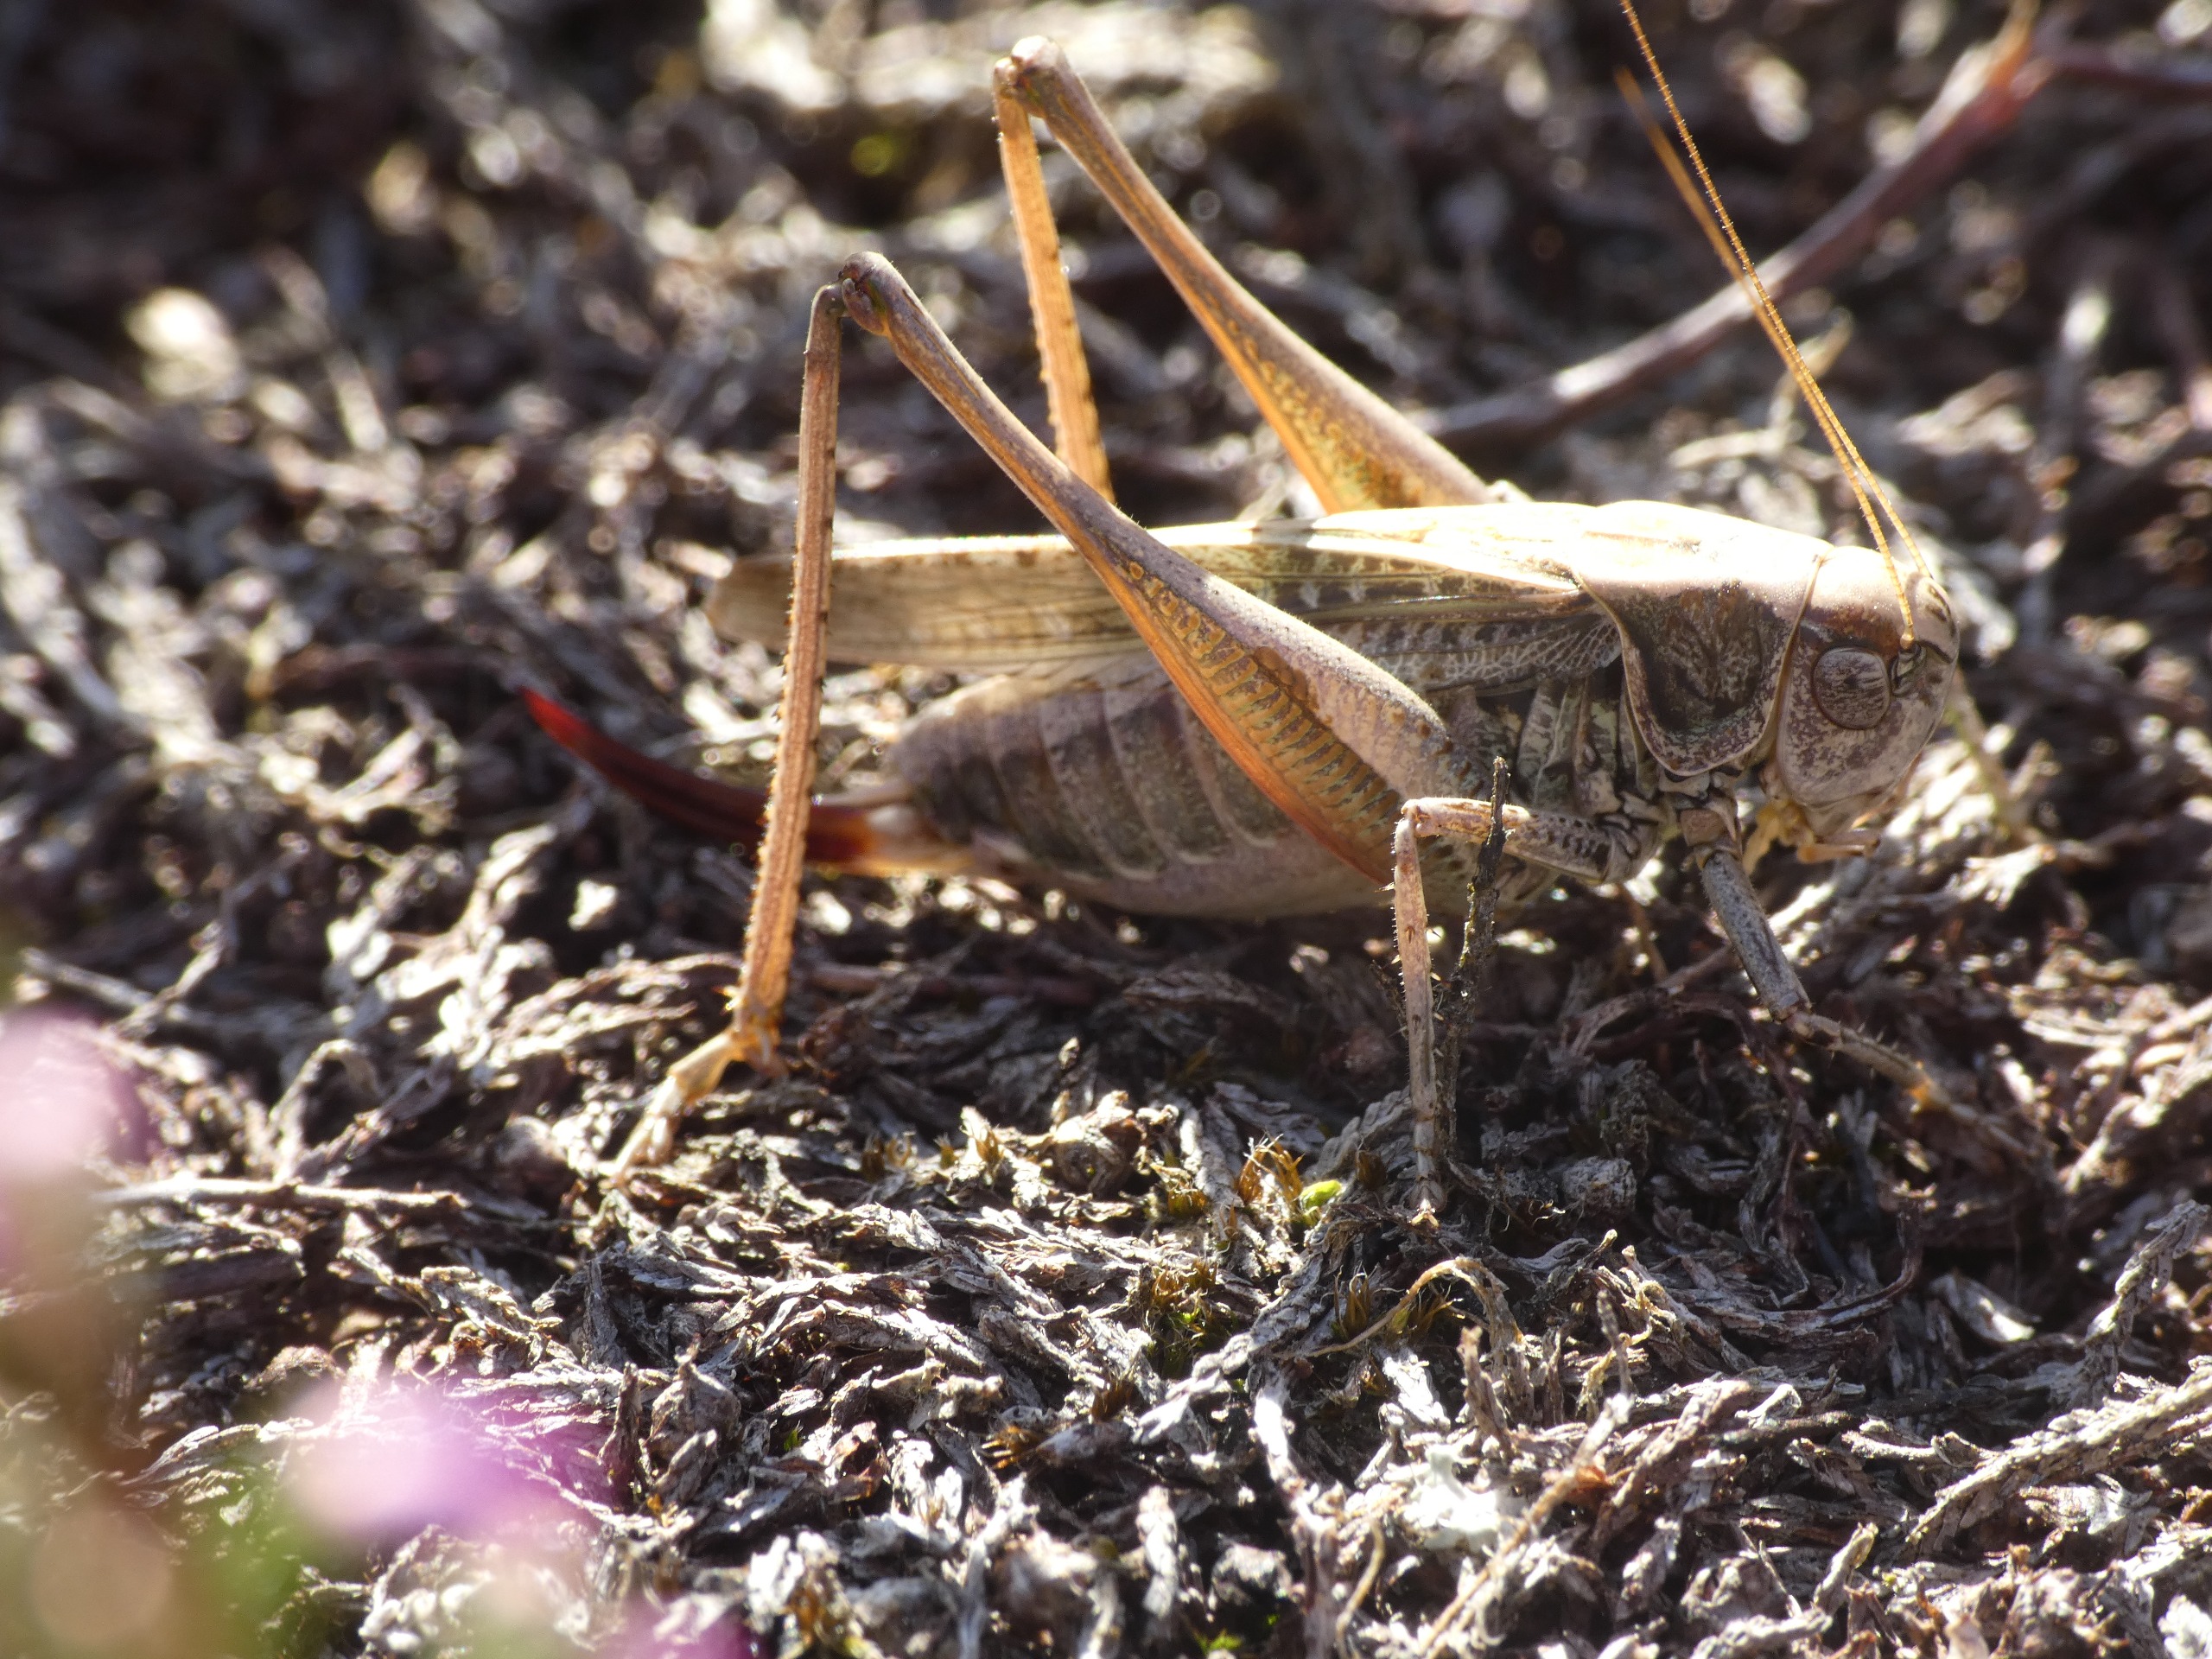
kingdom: Animalia
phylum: Arthropoda
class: Insecta
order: Orthoptera
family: Tettigoniidae
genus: Platycleis
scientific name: Platycleis albopunctata
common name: Sandgræshoppe
